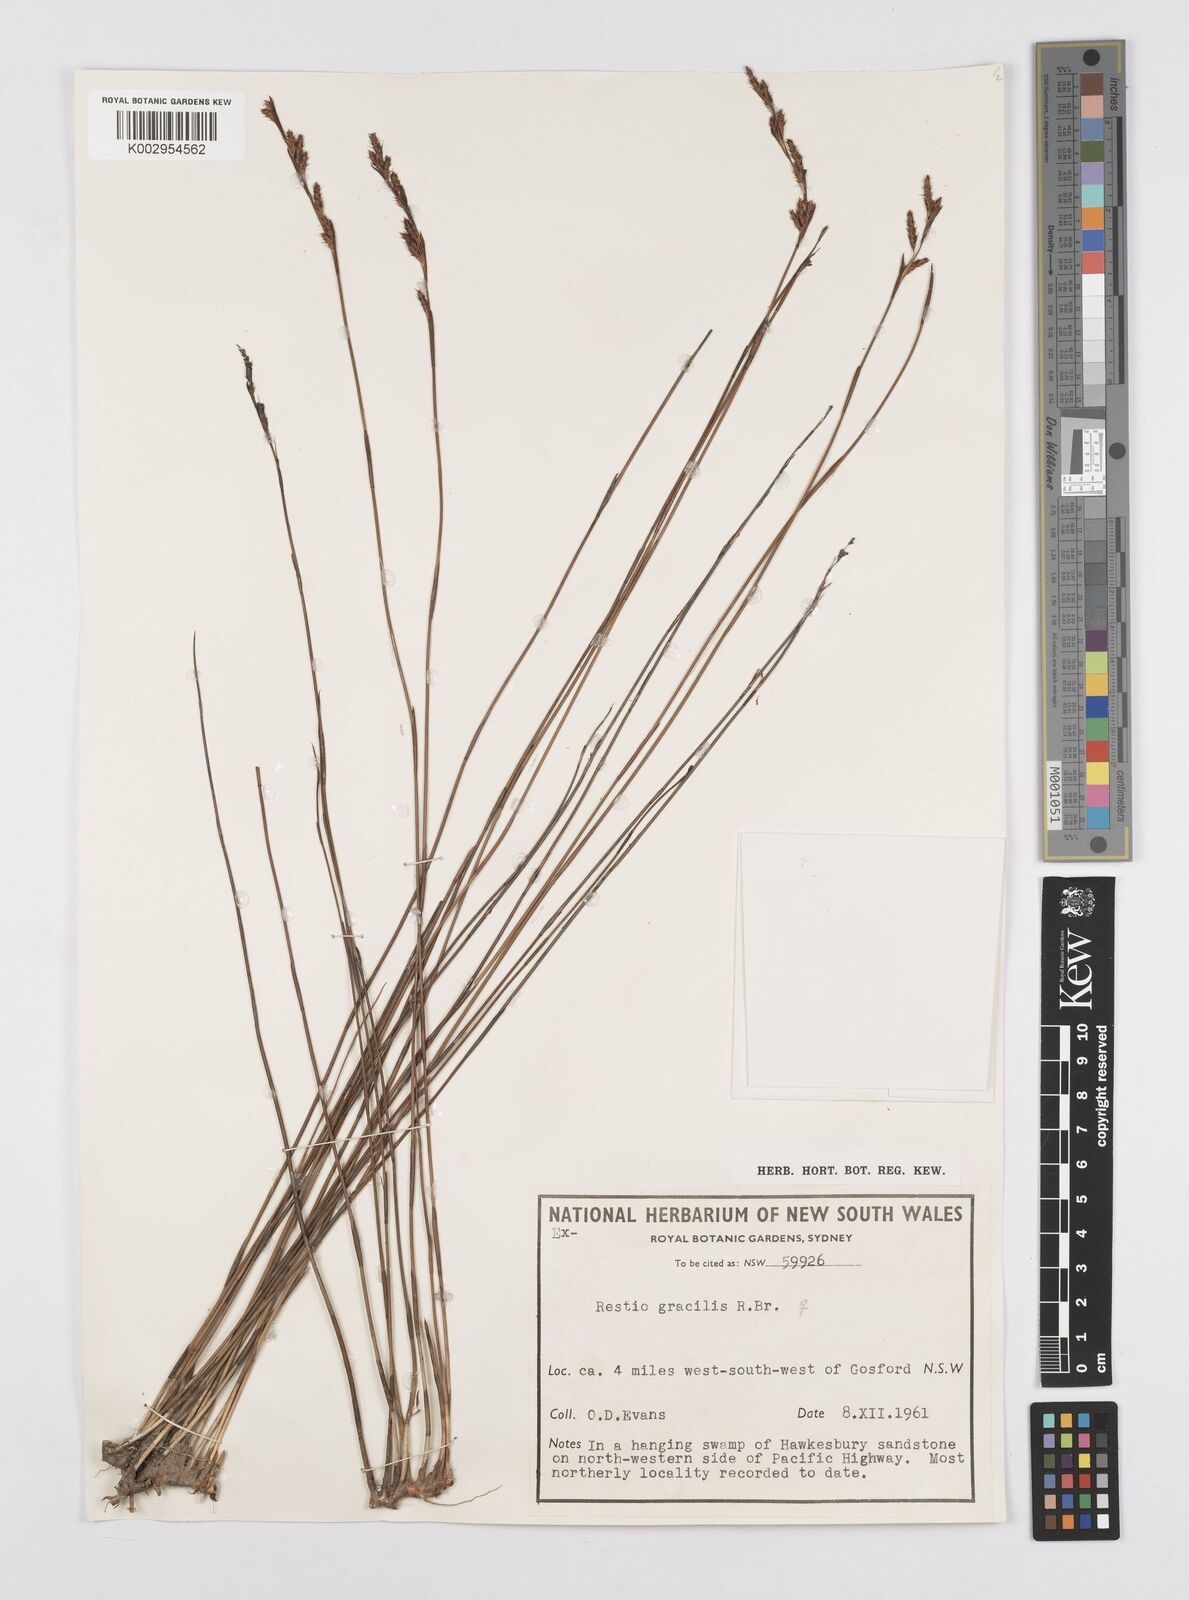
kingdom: Plantae
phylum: Tracheophyta
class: Liliopsida
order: Poales
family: Restionaceae
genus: Baloskion
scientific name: Baloskion gracile
